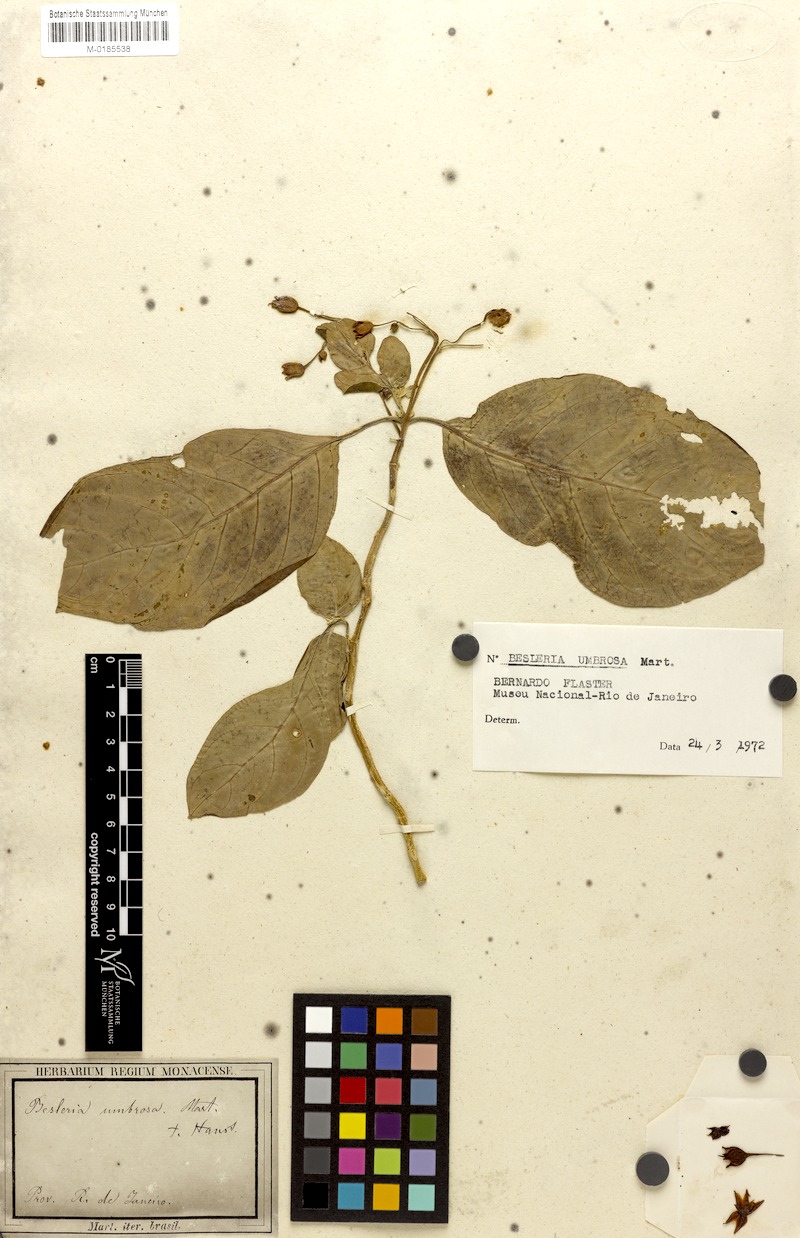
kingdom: Plantae
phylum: Tracheophyta
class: Magnoliopsida
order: Lamiales
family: Gesneriaceae
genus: Besleria
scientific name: Besleria umbrosa
